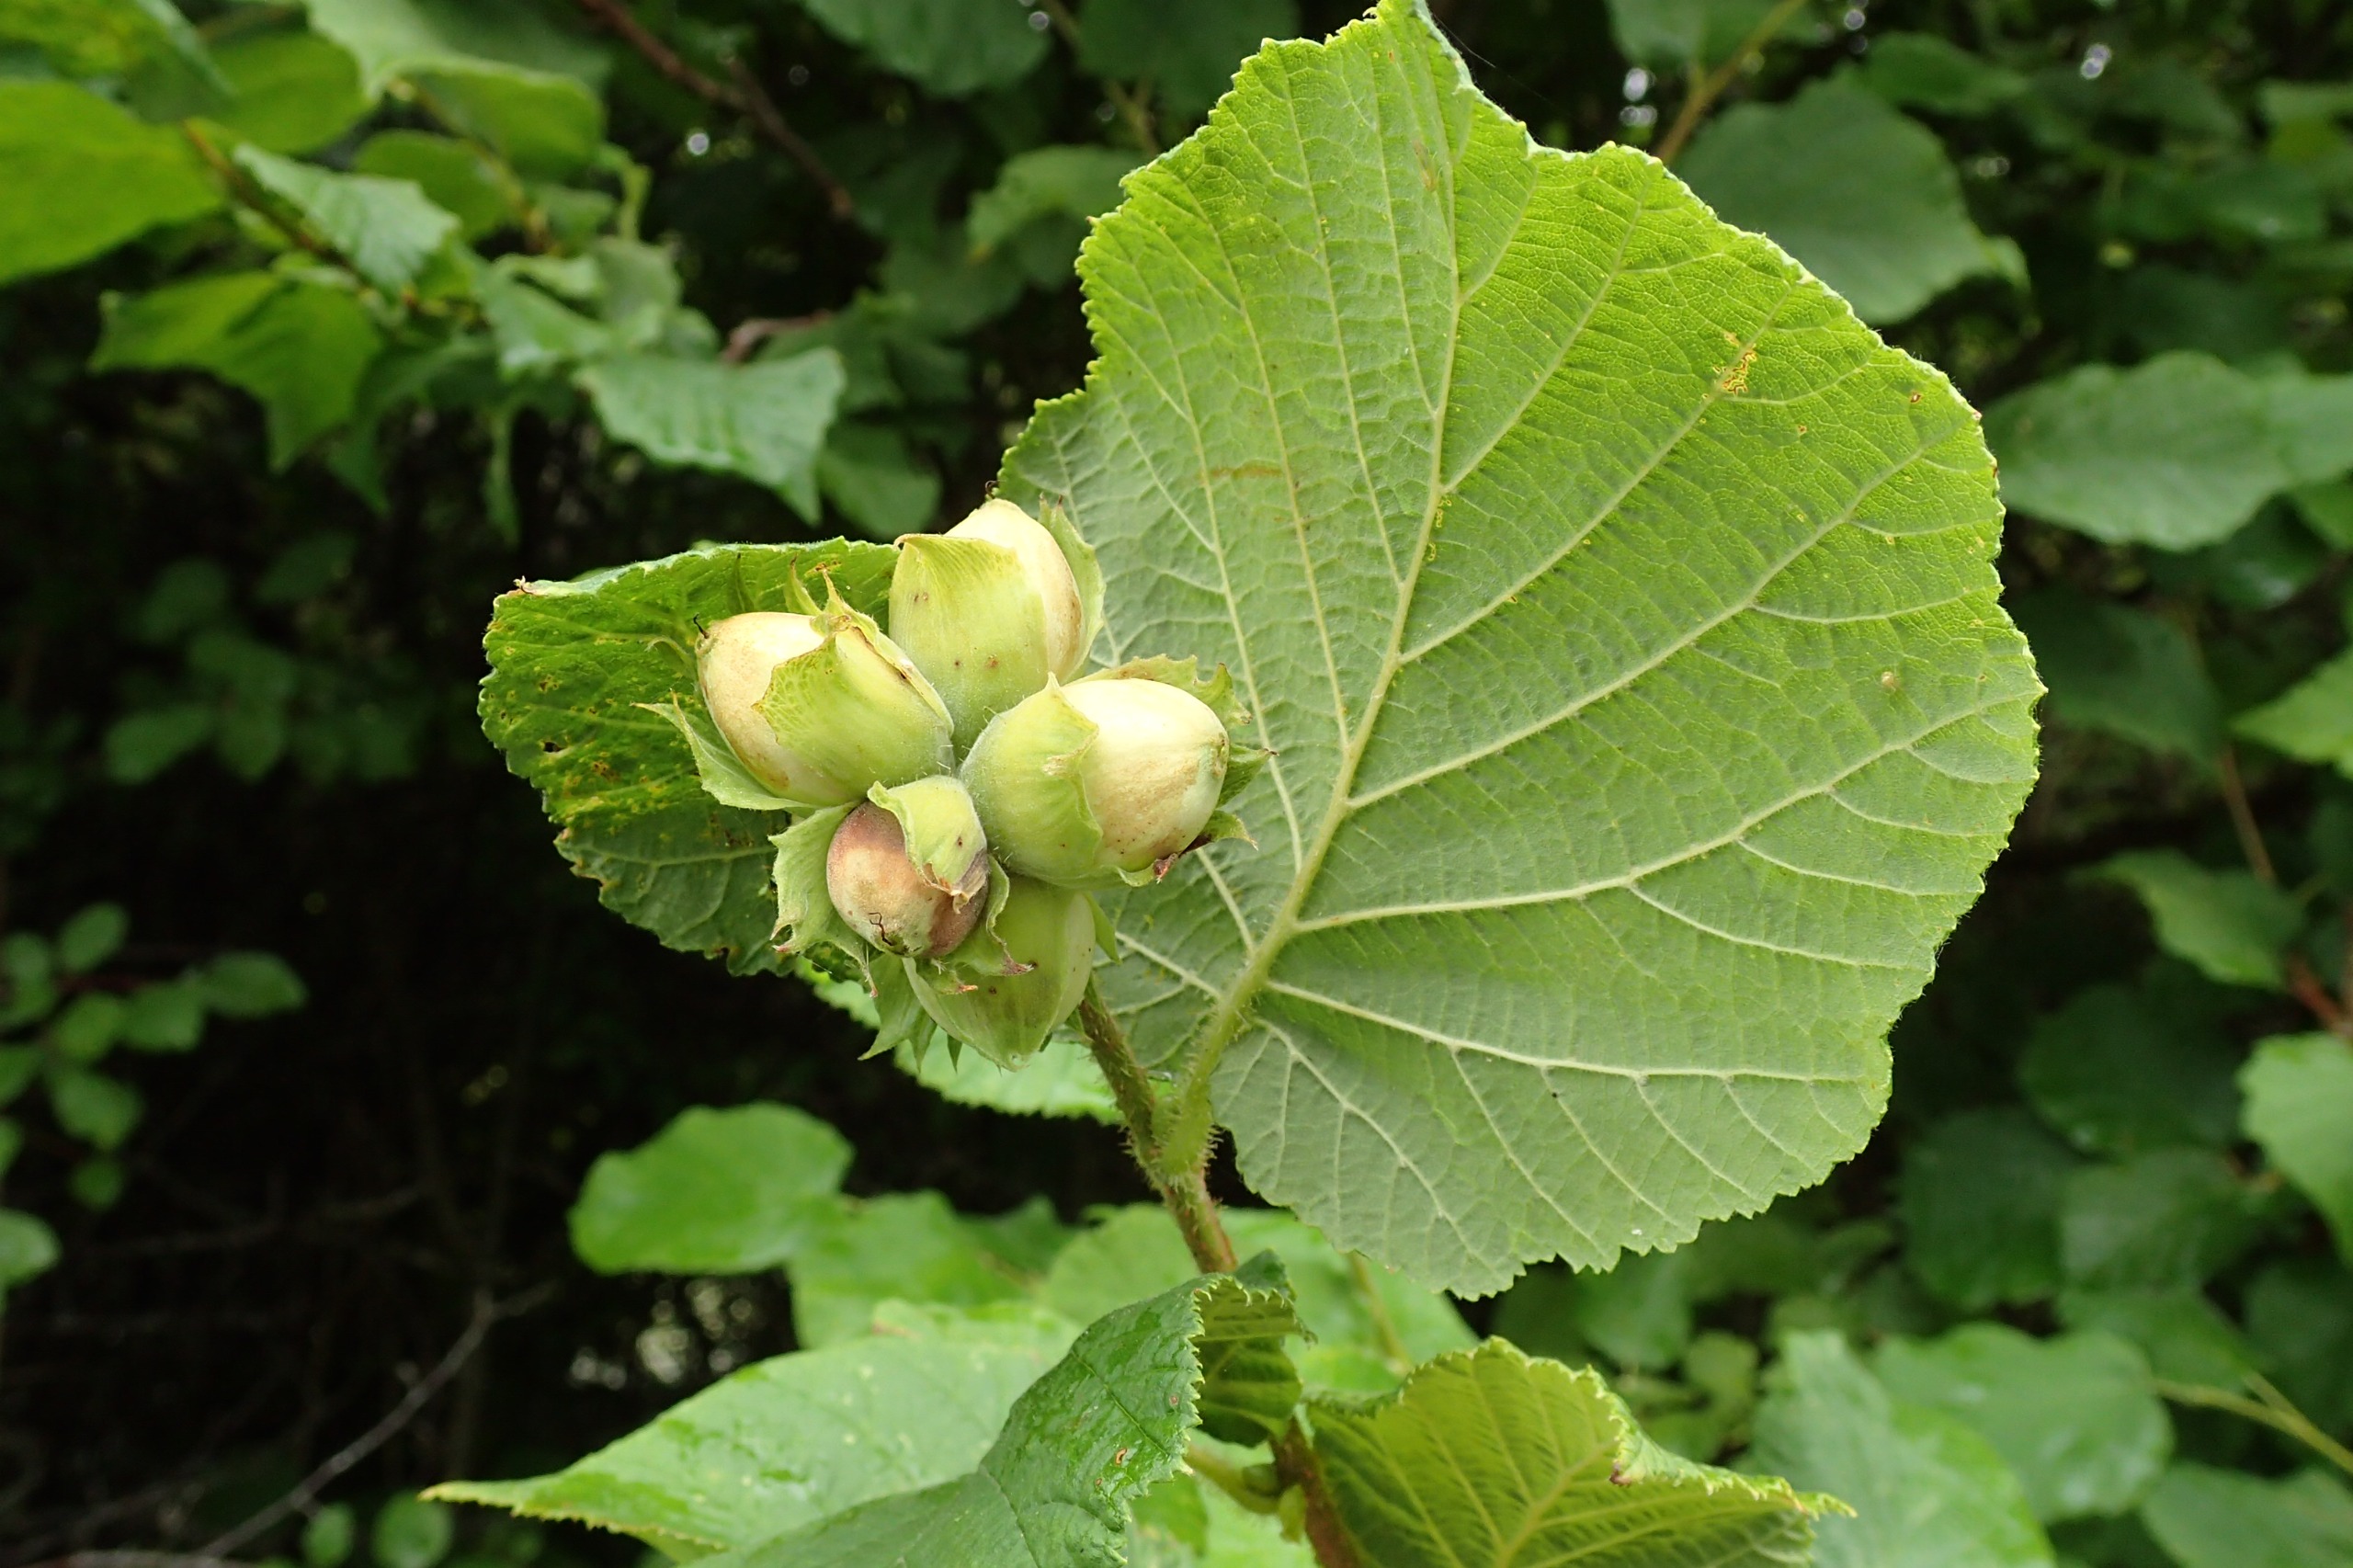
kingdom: Plantae
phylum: Tracheophyta
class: Magnoliopsida
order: Fagales
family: Betulaceae
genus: Corylus
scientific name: Corylus avellana
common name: Hassel
